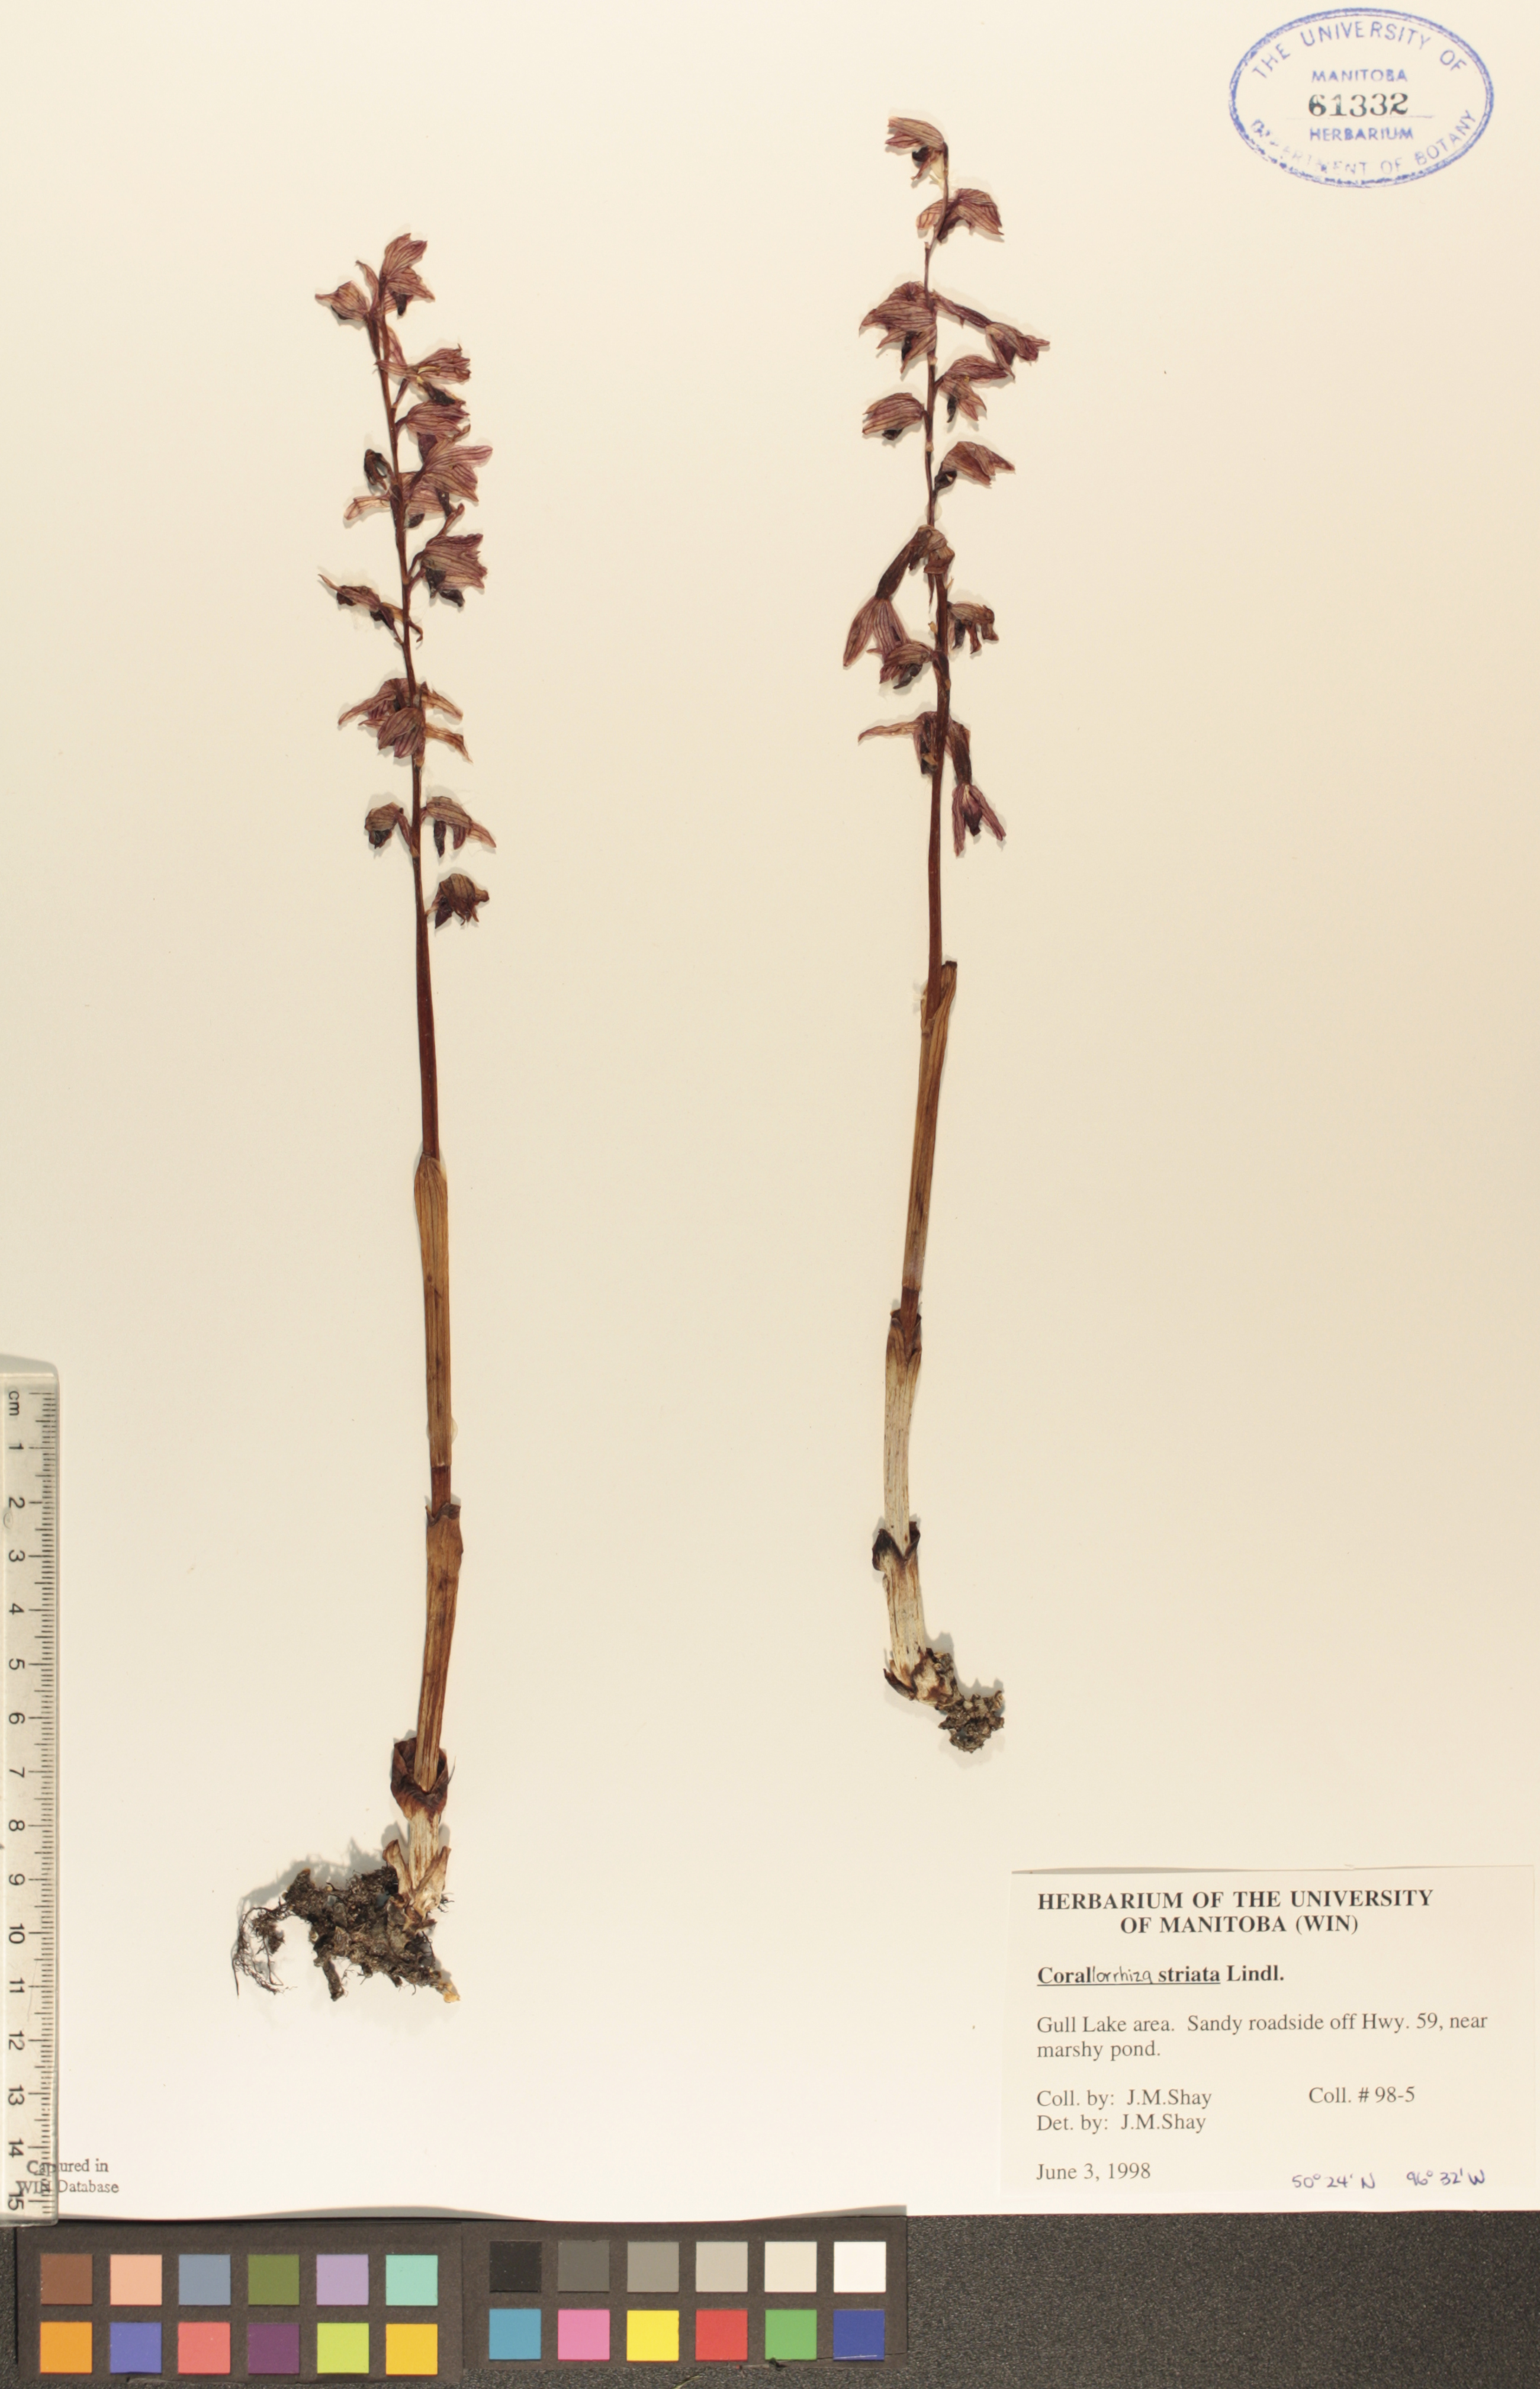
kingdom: Plantae
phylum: Tracheophyta
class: Liliopsida
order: Asparagales
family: Orchidaceae
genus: Corallorhiza
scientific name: Corallorhiza striata
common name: Hooded coralroot
